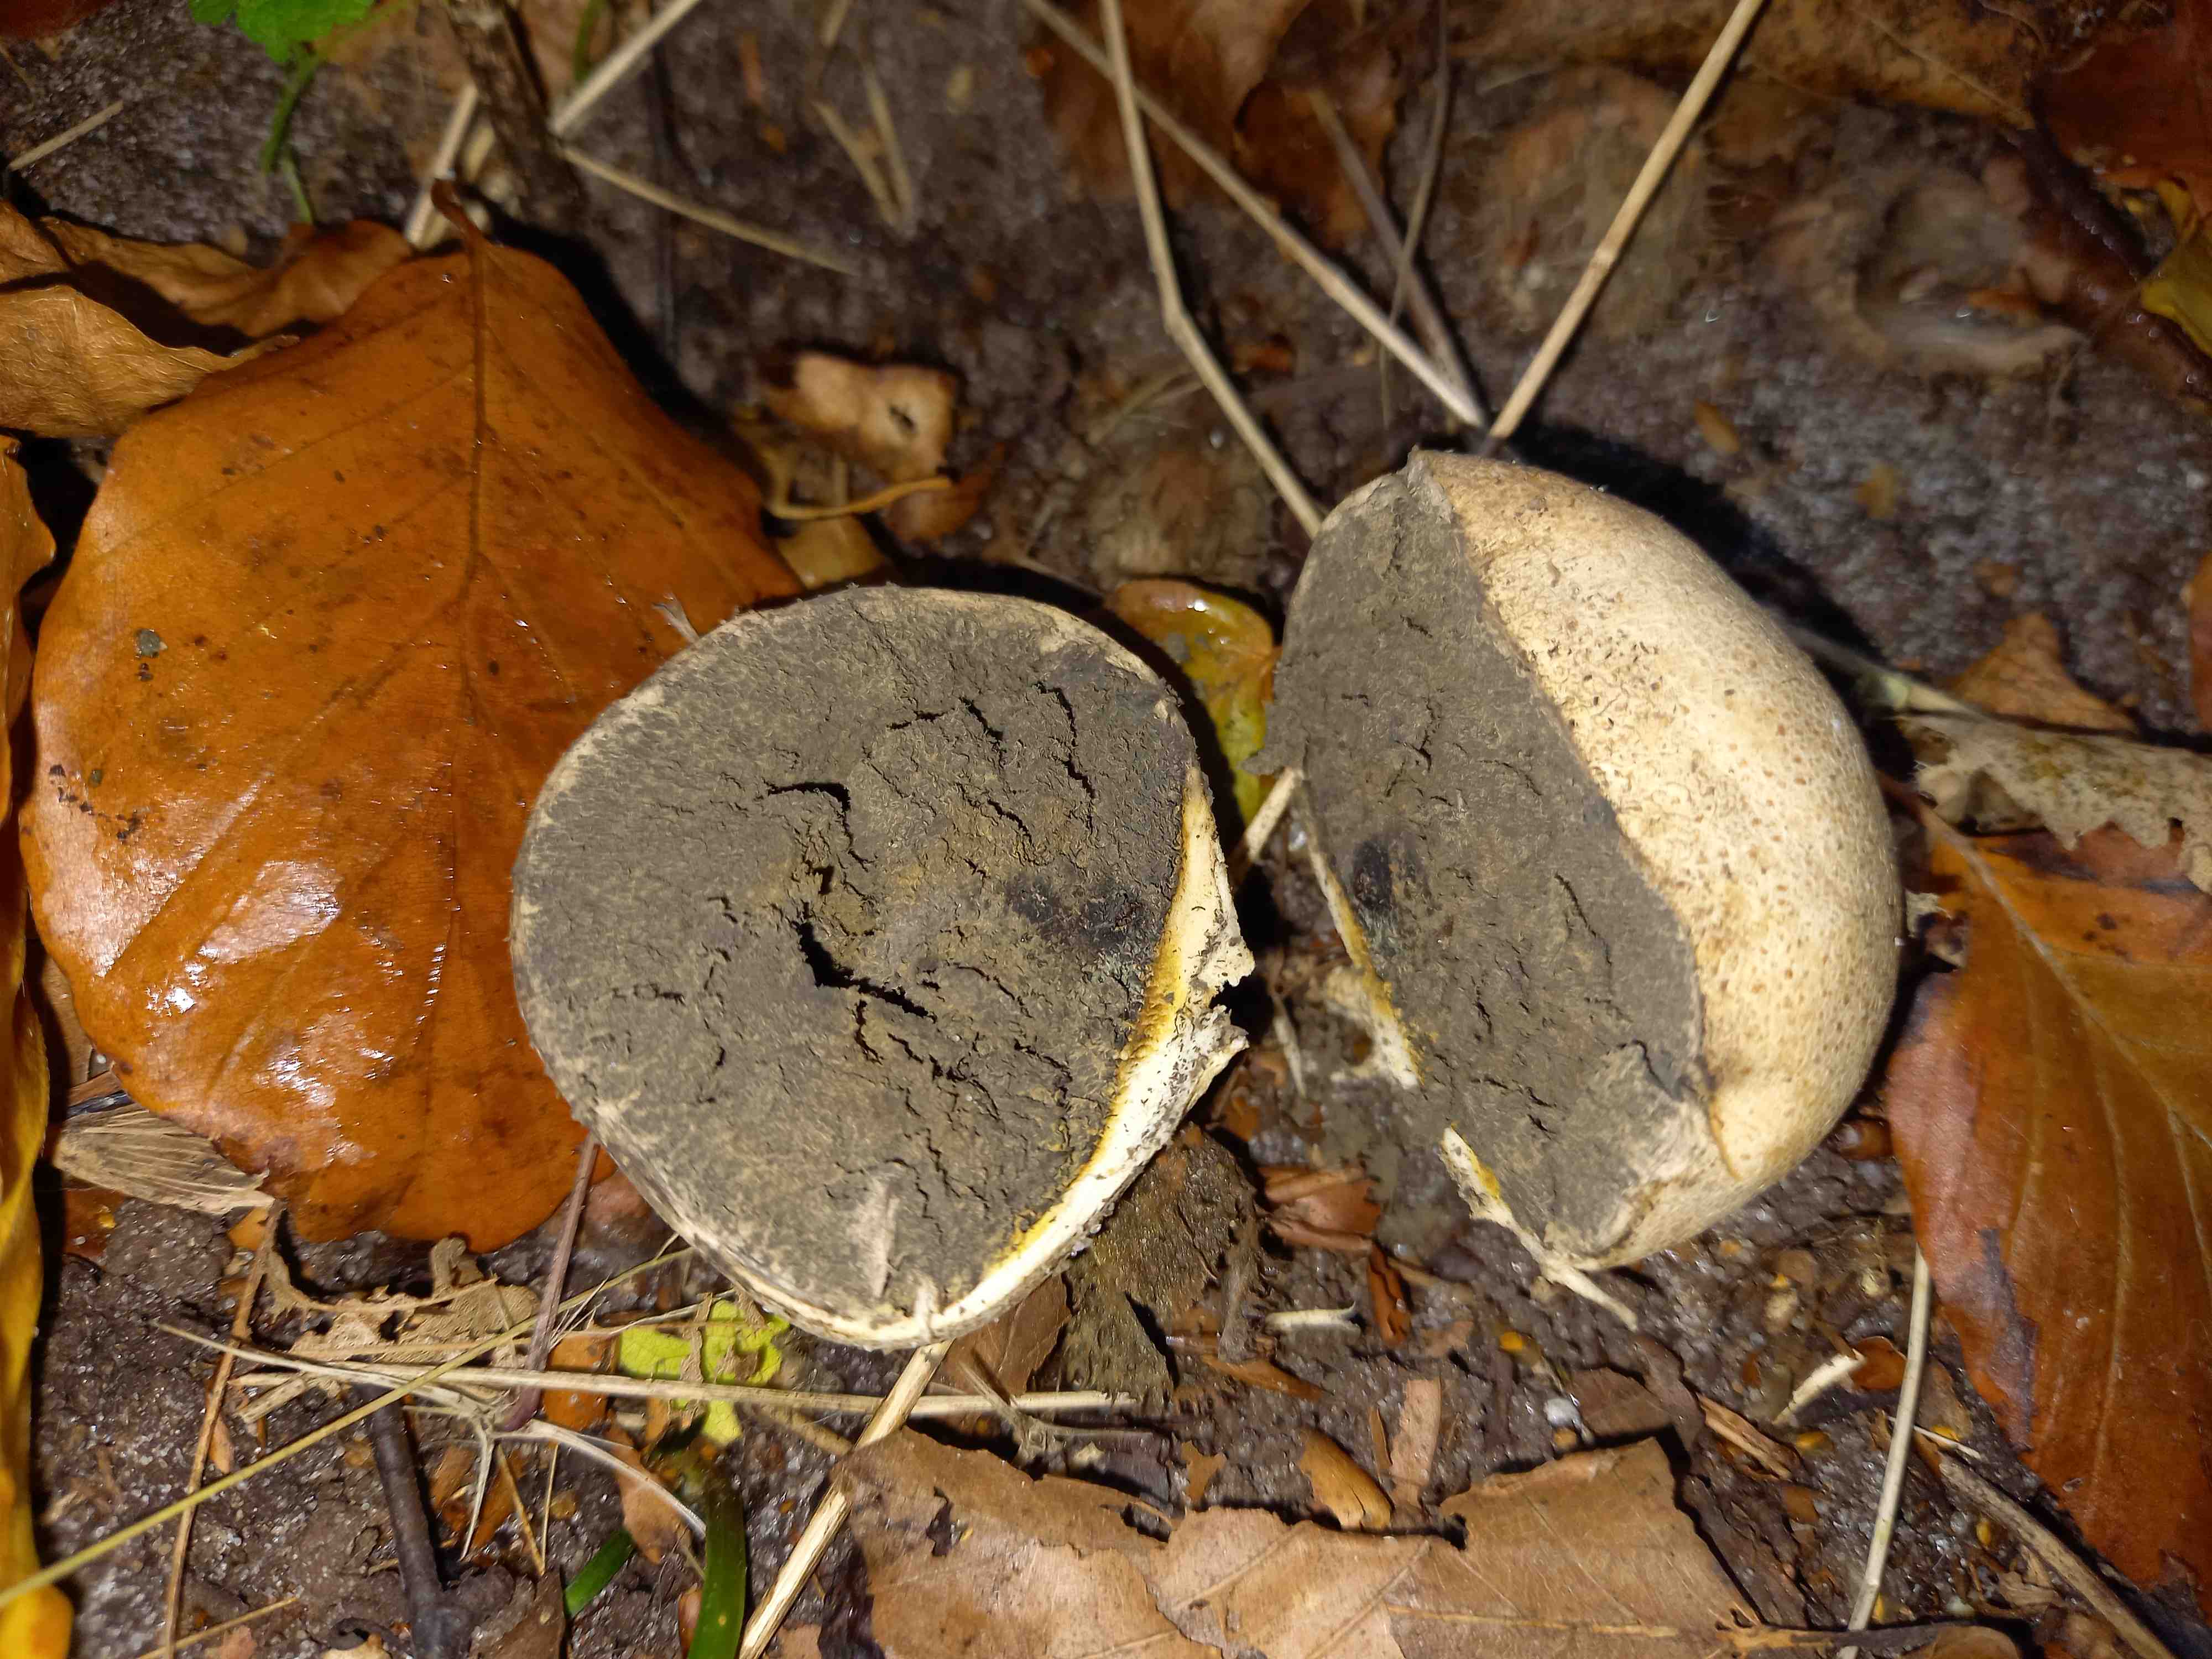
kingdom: Fungi
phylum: Basidiomycota
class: Agaricomycetes
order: Boletales
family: Sclerodermataceae
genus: Scleroderma
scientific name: Scleroderma citrinum
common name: almindelig bruskbold
